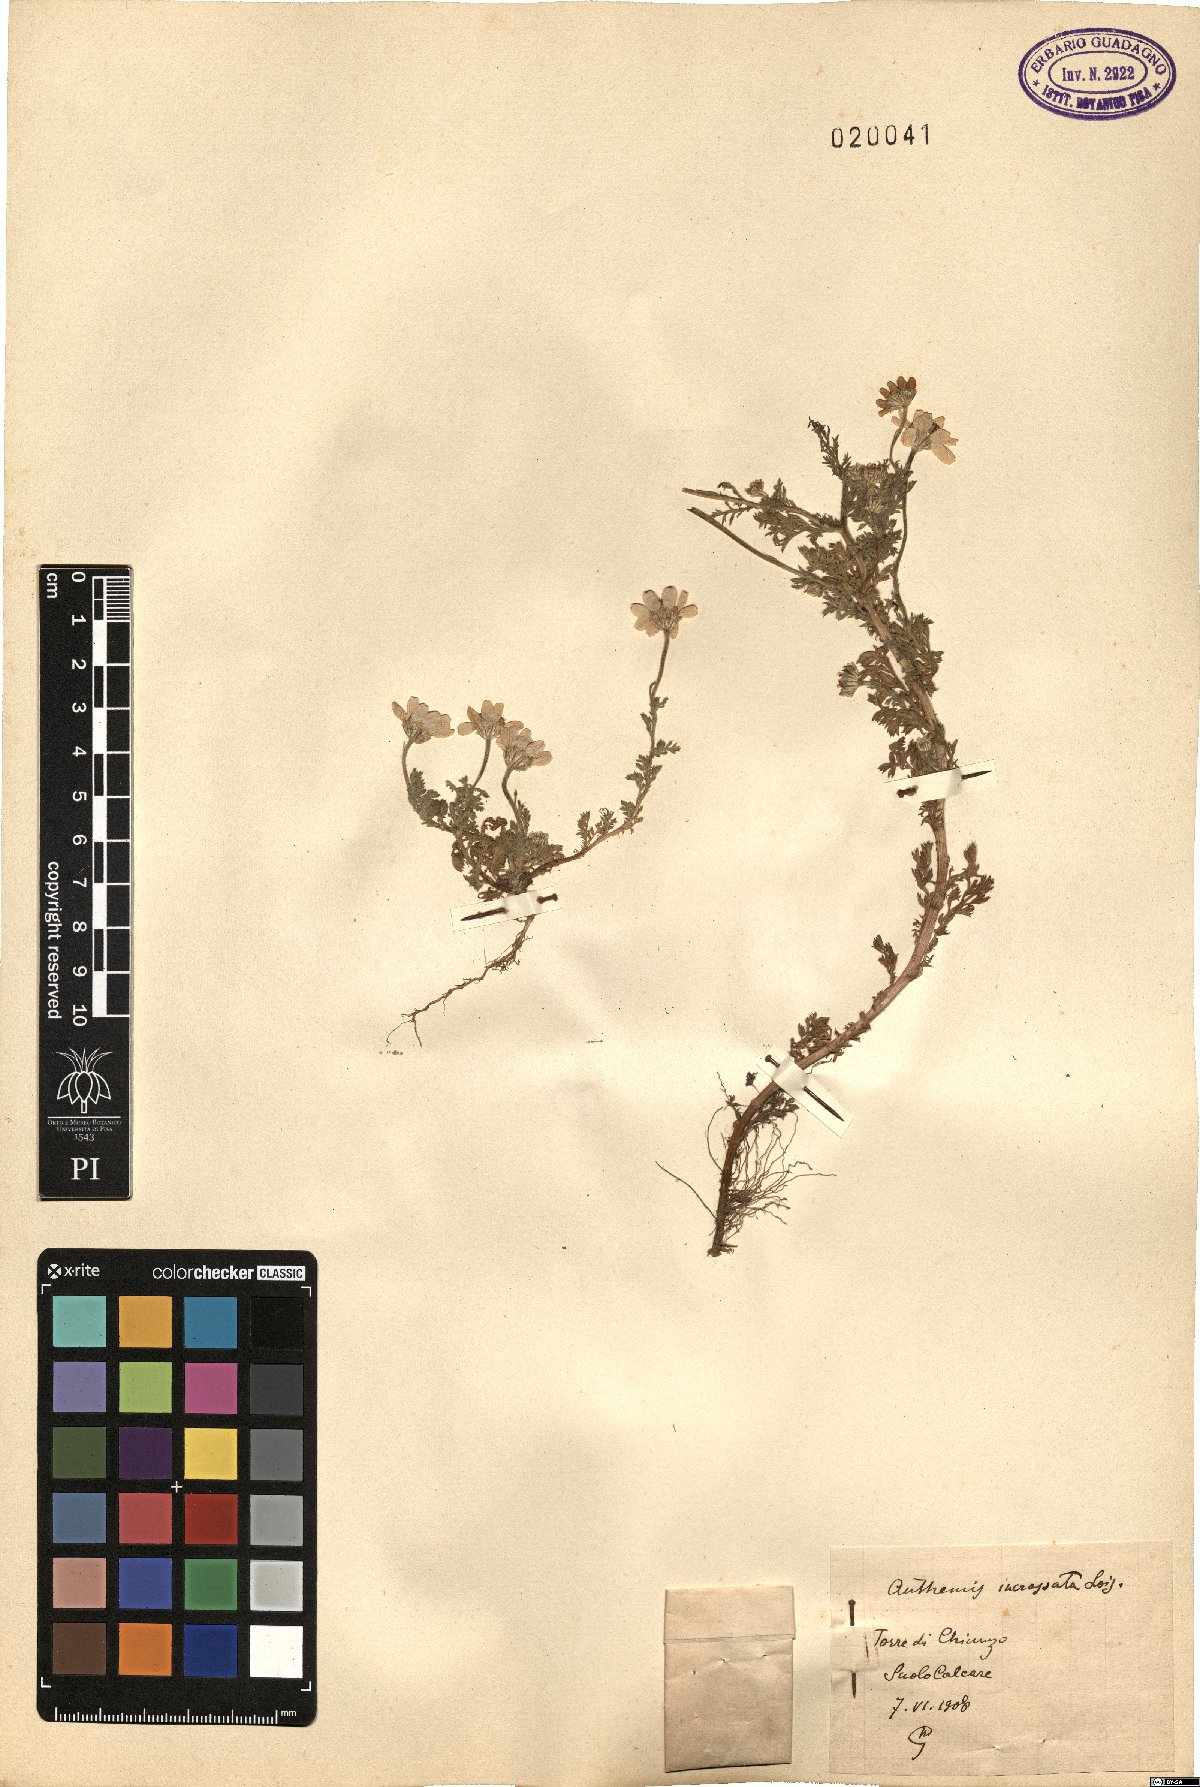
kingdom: Plantae
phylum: Tracheophyta
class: Magnoliopsida
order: Asterales
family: Asteraceae
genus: Anthemis
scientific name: Anthemis arvensis
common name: Corn chamomile
